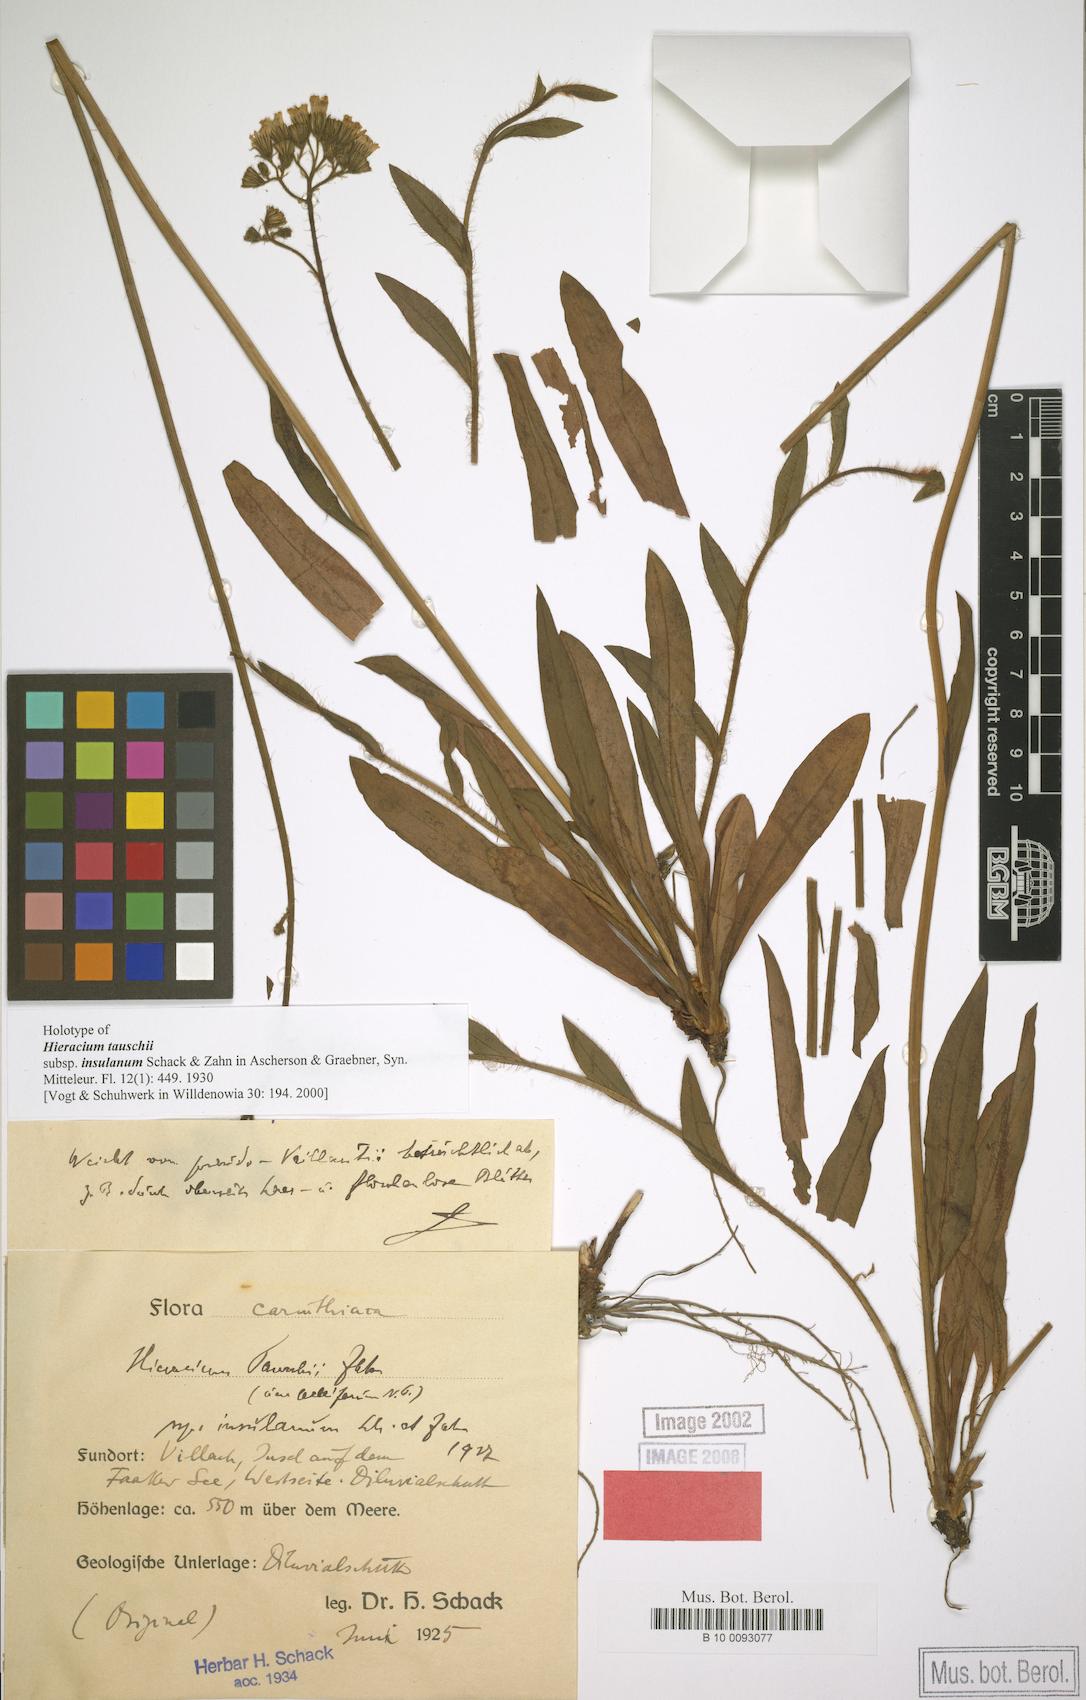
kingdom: Plantae
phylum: Tracheophyta
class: Magnoliopsida
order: Asterales
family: Asteraceae
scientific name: Asteraceae
